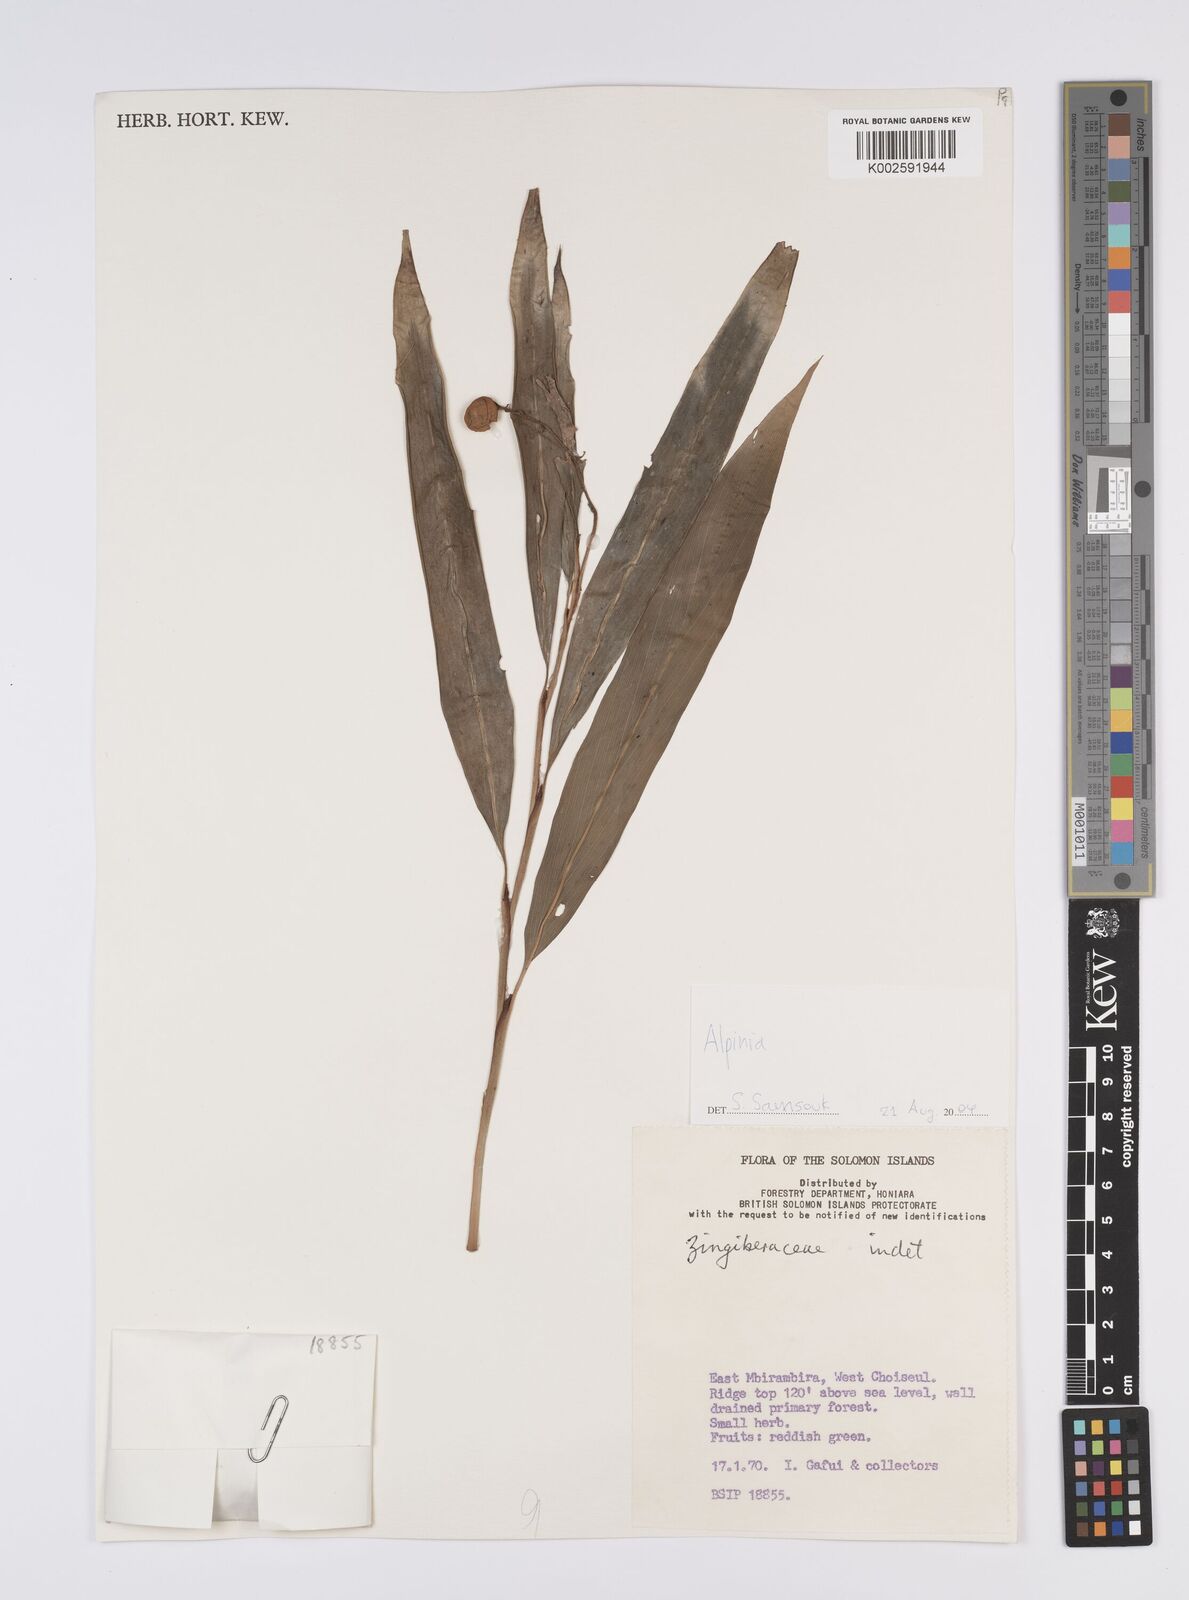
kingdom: Plantae
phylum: Tracheophyta
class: Liliopsida
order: Zingiberales
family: Zingiberaceae
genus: Alpinia
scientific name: Alpinia
